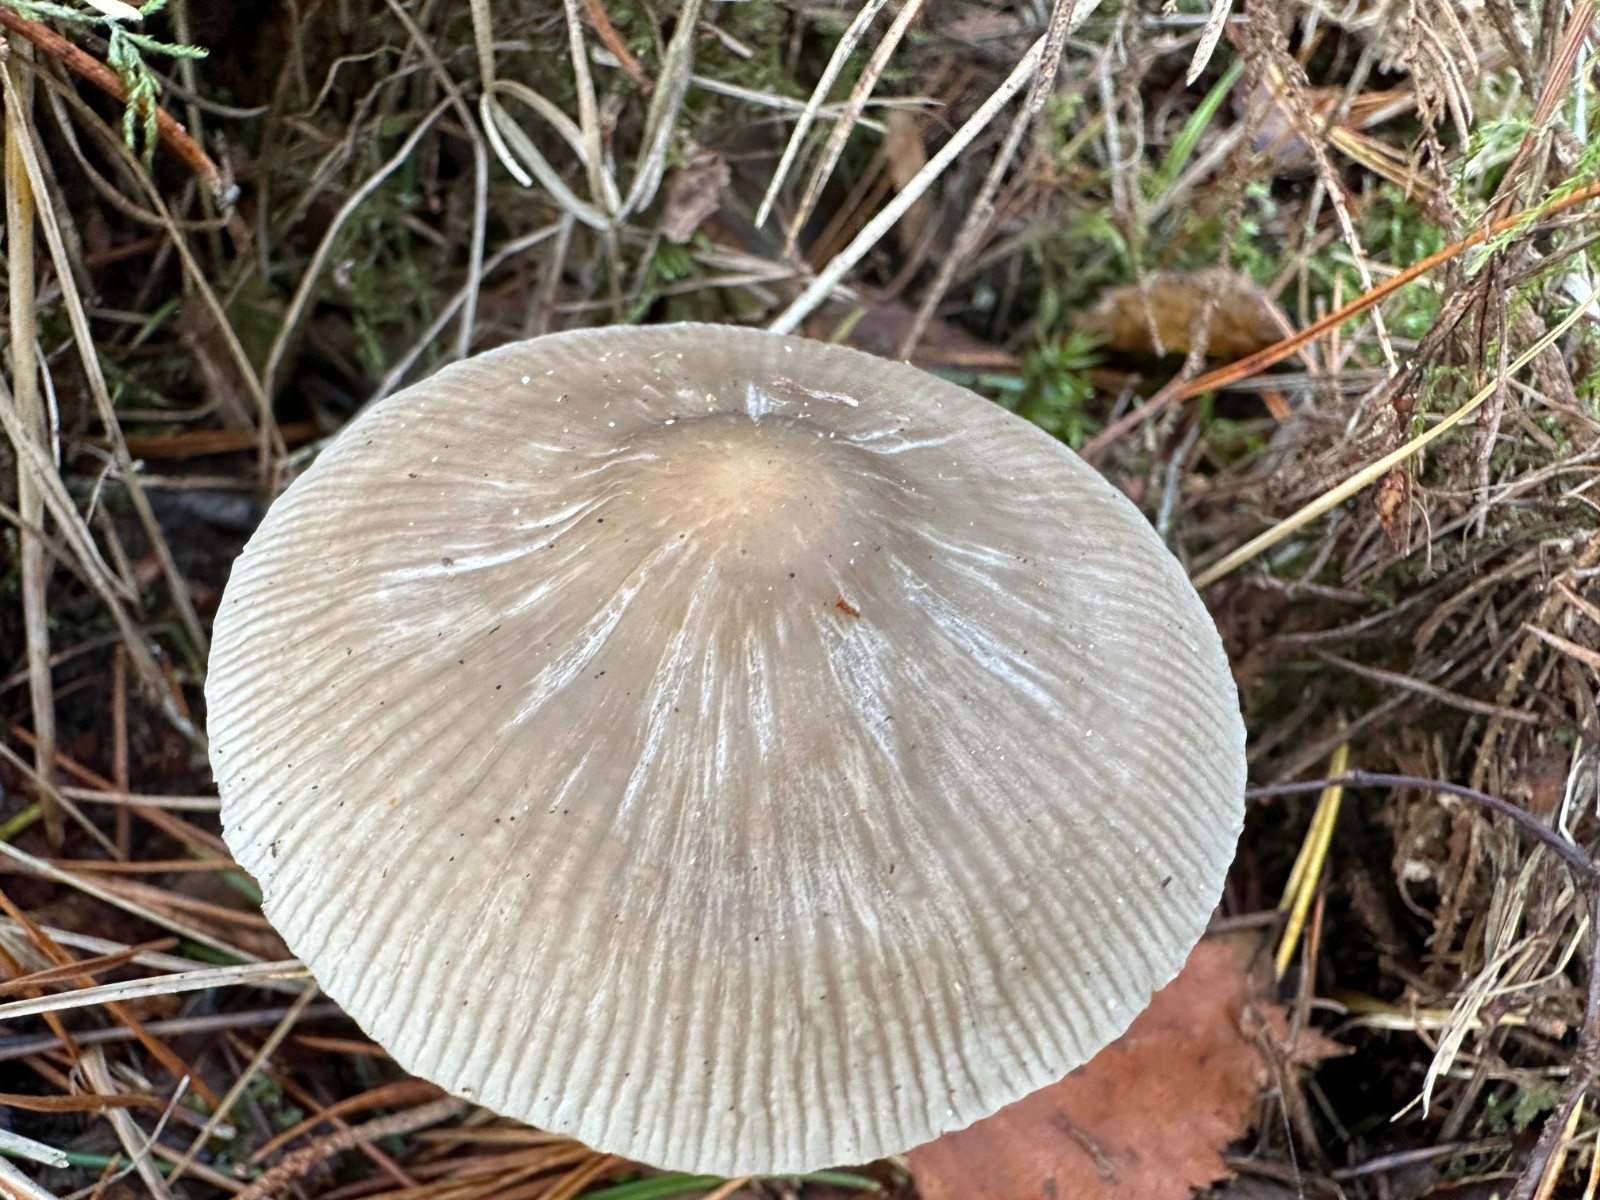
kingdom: Fungi
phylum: Basidiomycota
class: Agaricomycetes
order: Agaricales
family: Mycenaceae
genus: Mycena
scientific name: Mycena galericulata
